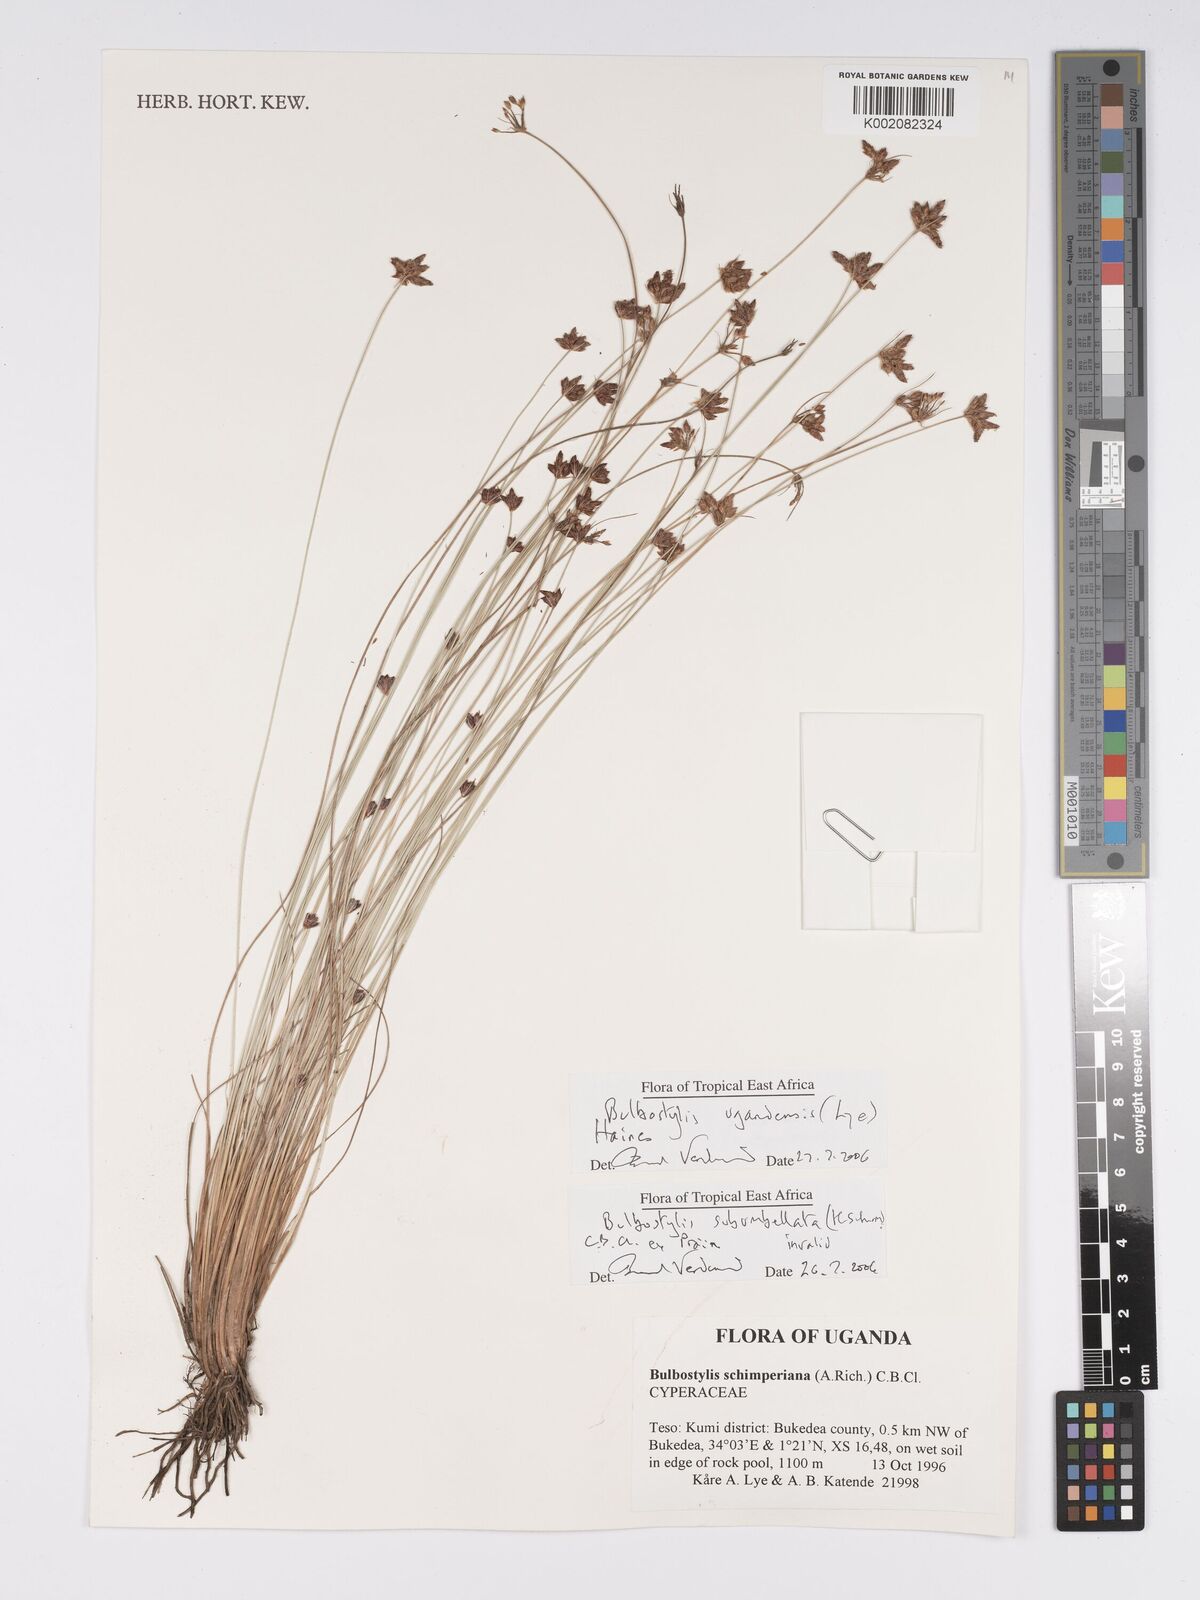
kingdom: Plantae
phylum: Tracheophyta
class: Liliopsida
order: Poales
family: Cyperaceae
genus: Bulbostylis
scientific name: Bulbostylis ugandensis
